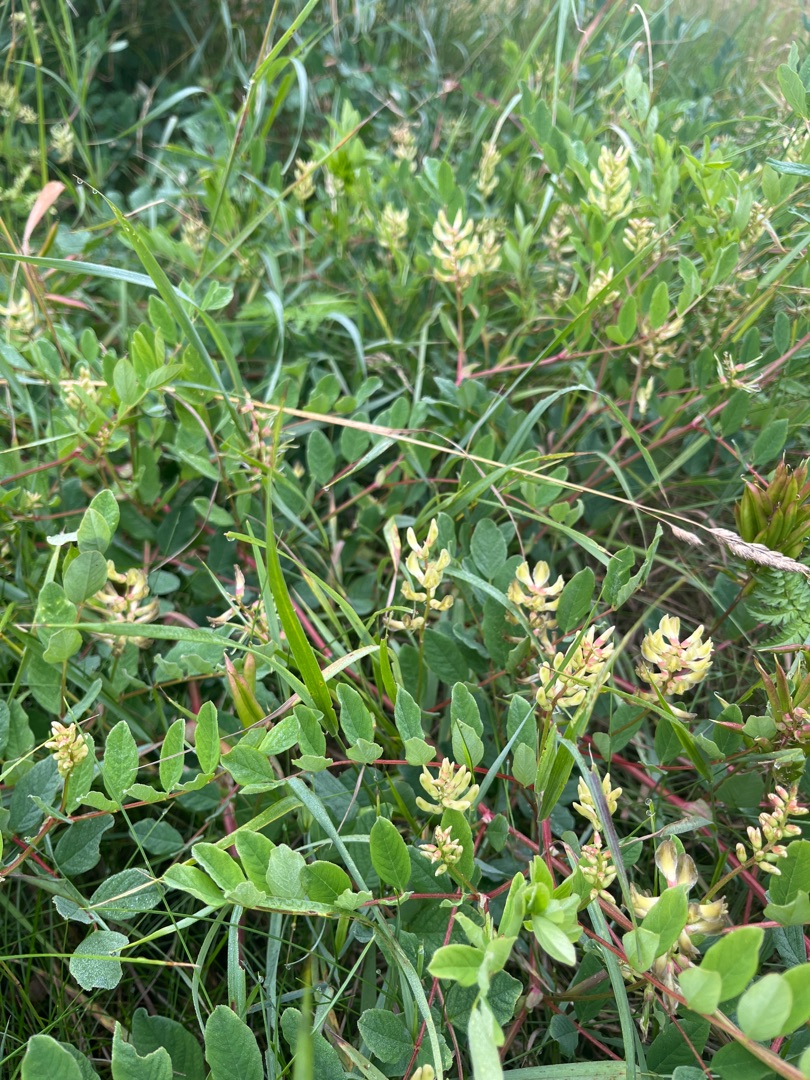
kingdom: Plantae
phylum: Tracheophyta
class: Magnoliopsida
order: Fabales
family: Fabaceae
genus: Astragalus
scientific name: Astragalus glycyphyllos
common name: Sød astragel
